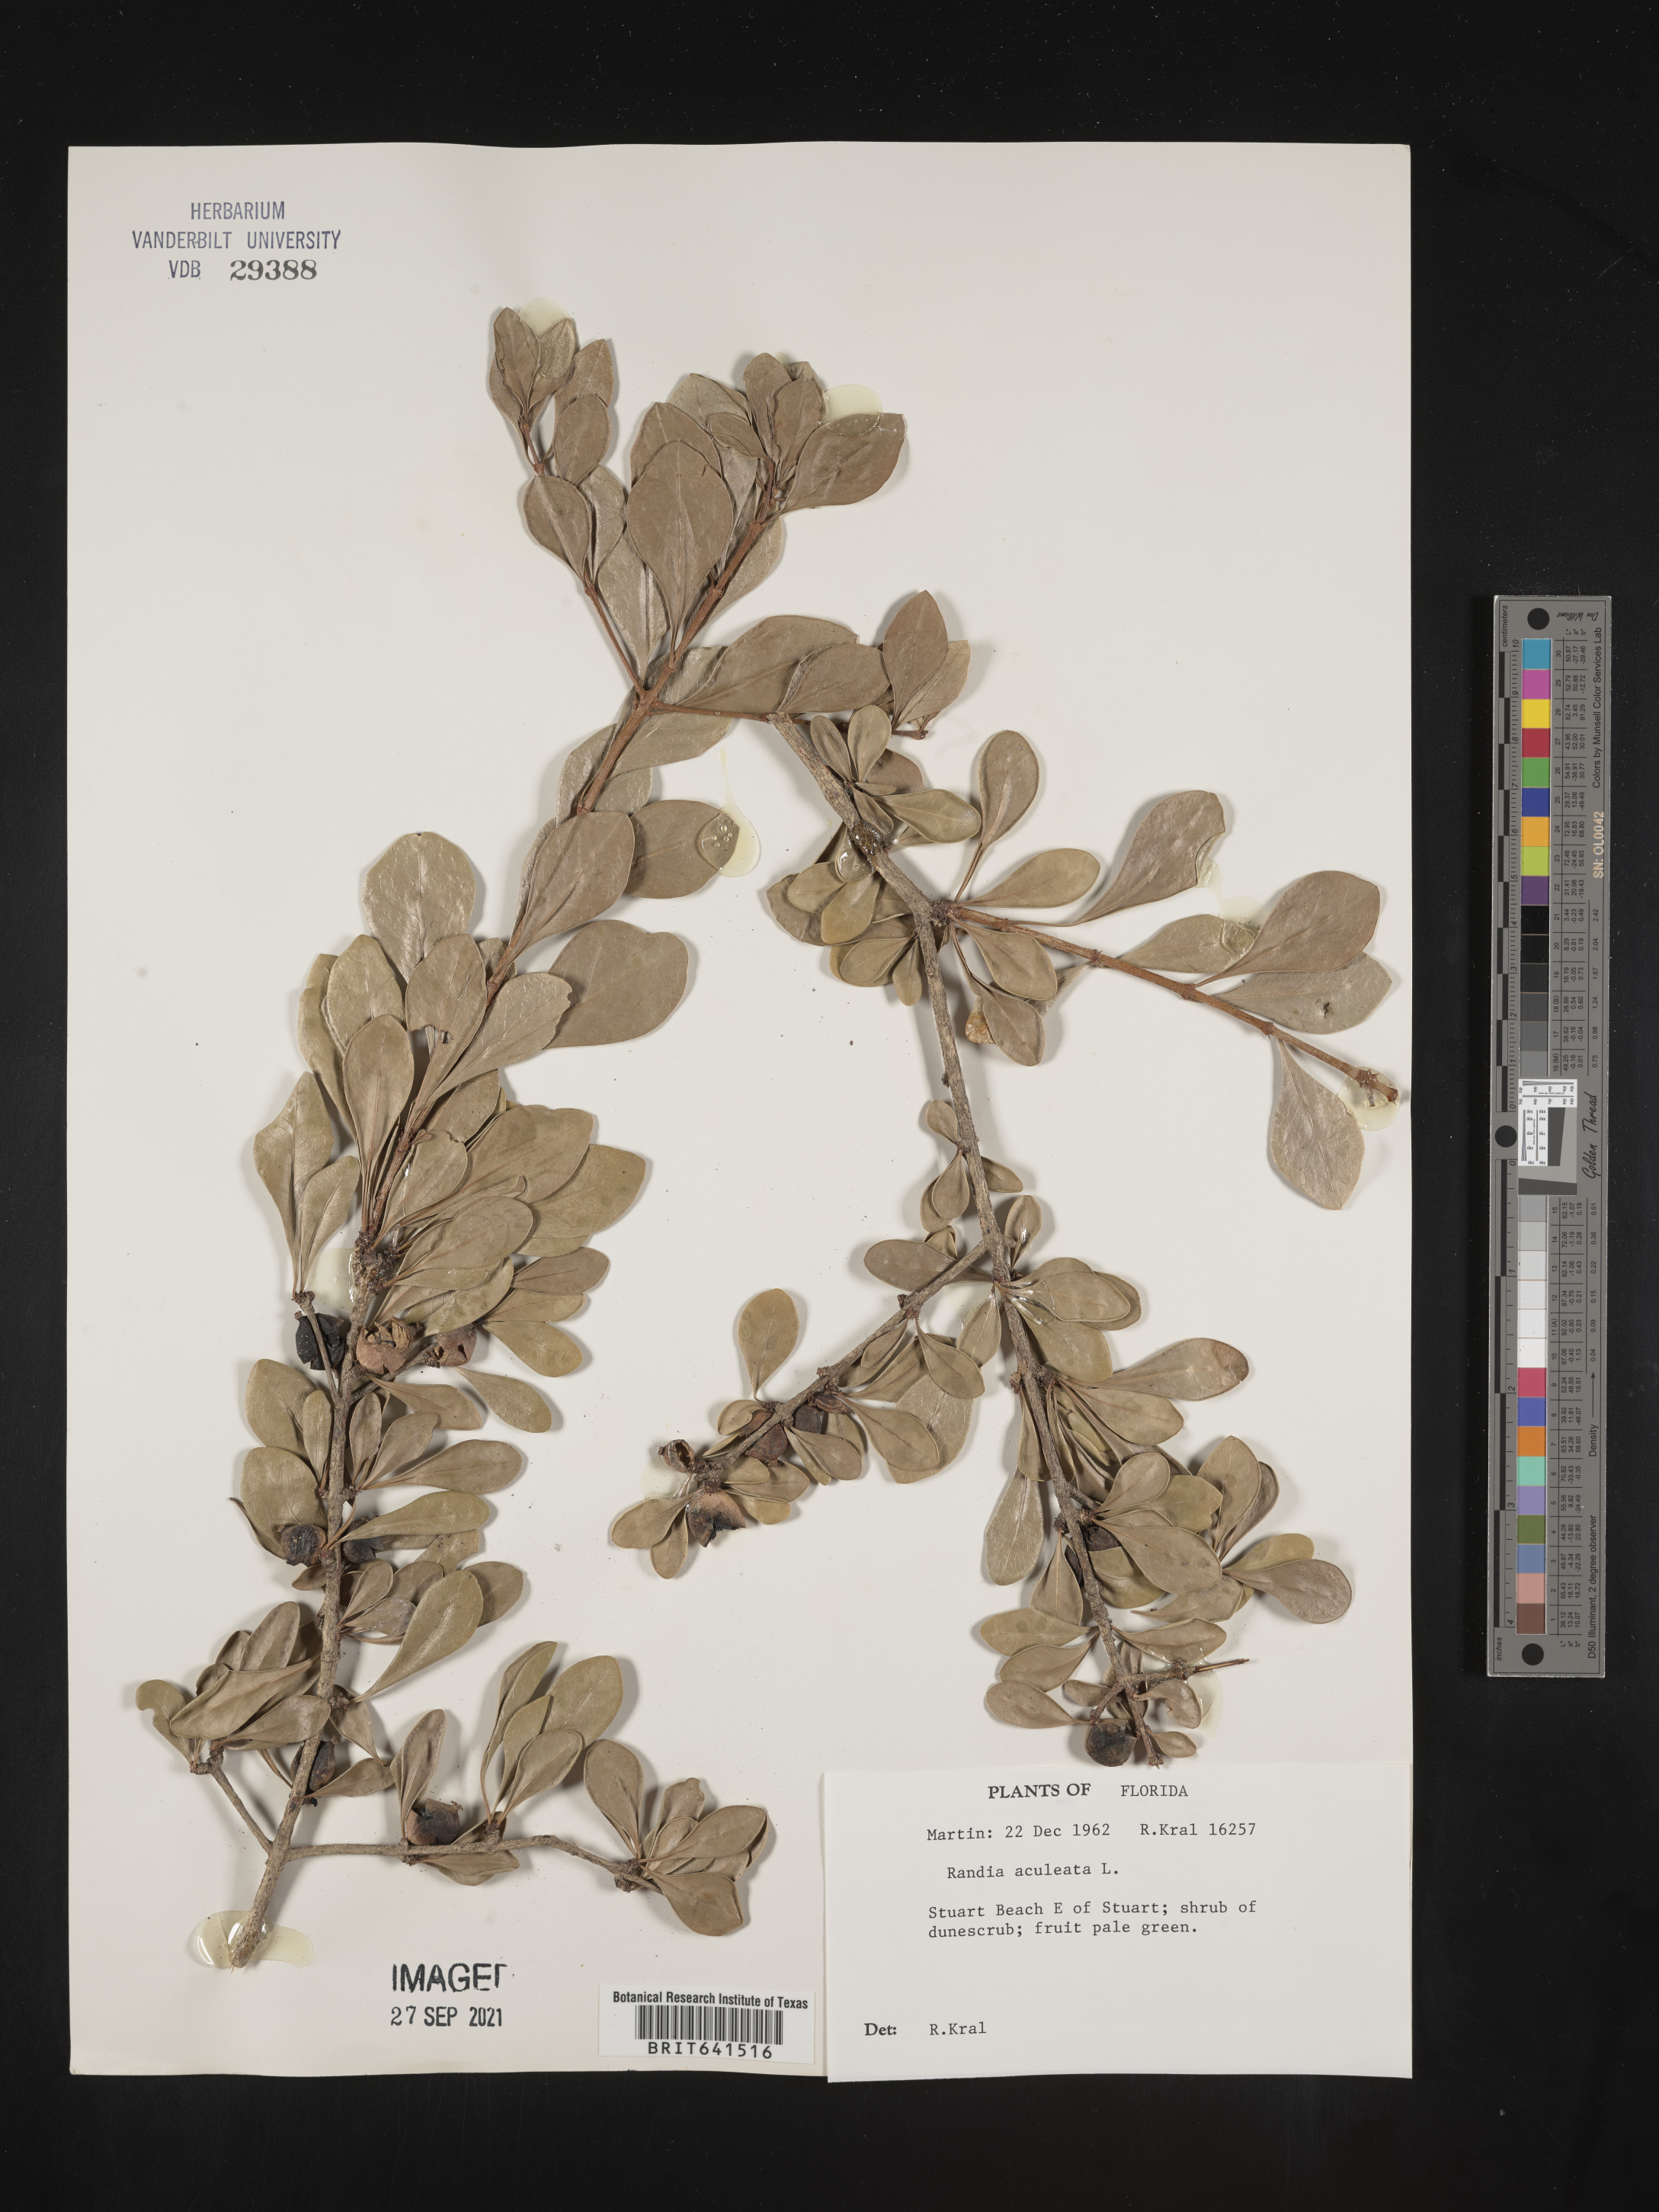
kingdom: Plantae
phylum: Tracheophyta
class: Magnoliopsida
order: Gentianales
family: Rubiaceae
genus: Randia
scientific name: Randia aculeata
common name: Inkberry
